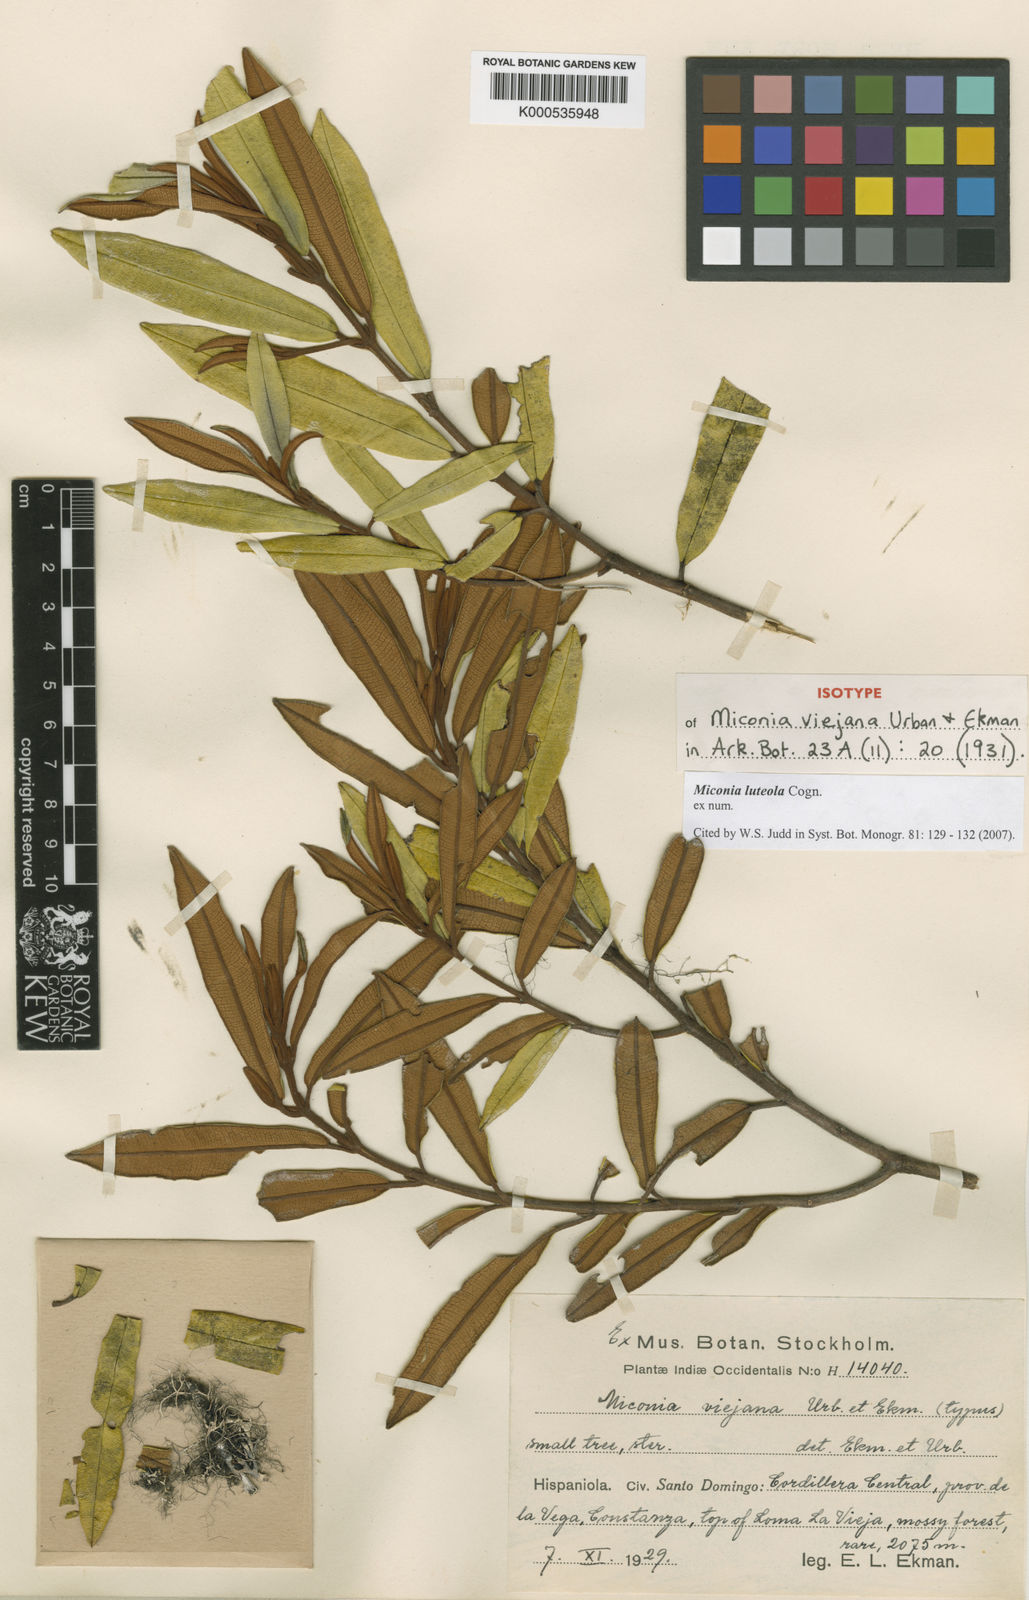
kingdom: Plantae
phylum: Tracheophyta
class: Magnoliopsida
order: Myrtales
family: Melastomataceae
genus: Miconia
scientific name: Miconia luteola
